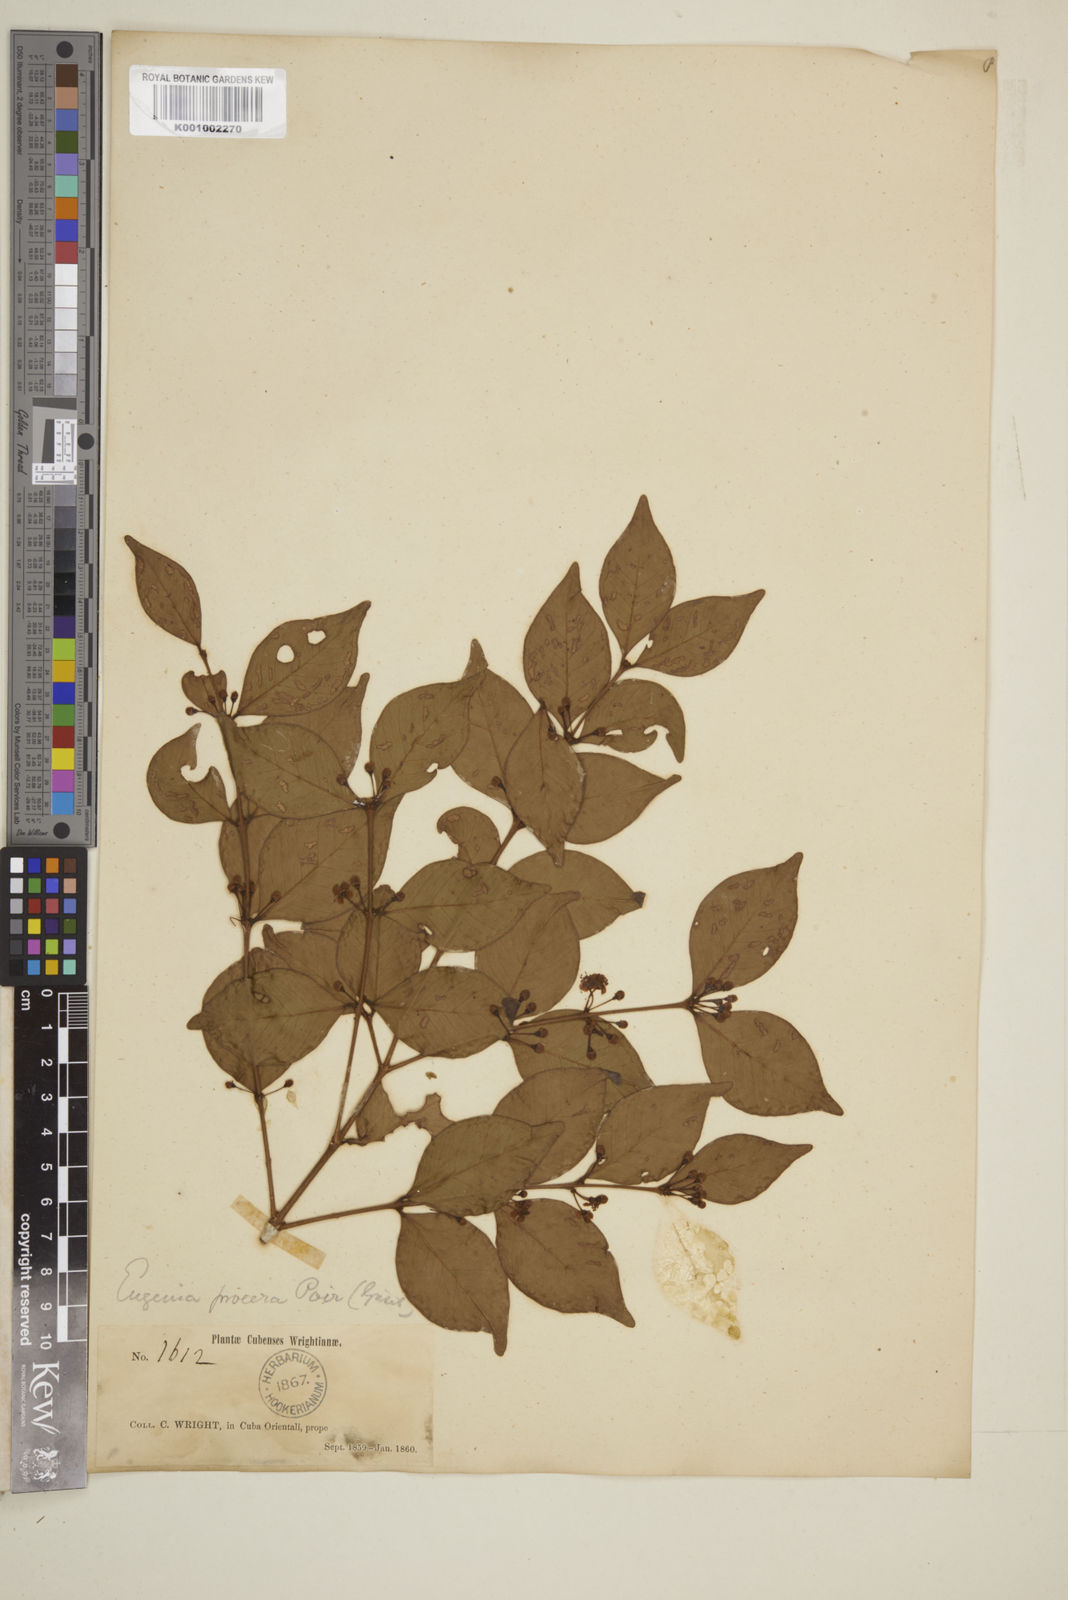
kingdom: Plantae
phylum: Tracheophyta
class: Magnoliopsida
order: Myrtales
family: Myrtaceae
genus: Eugenia
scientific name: Eugenia procera
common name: Bastard blackberry
